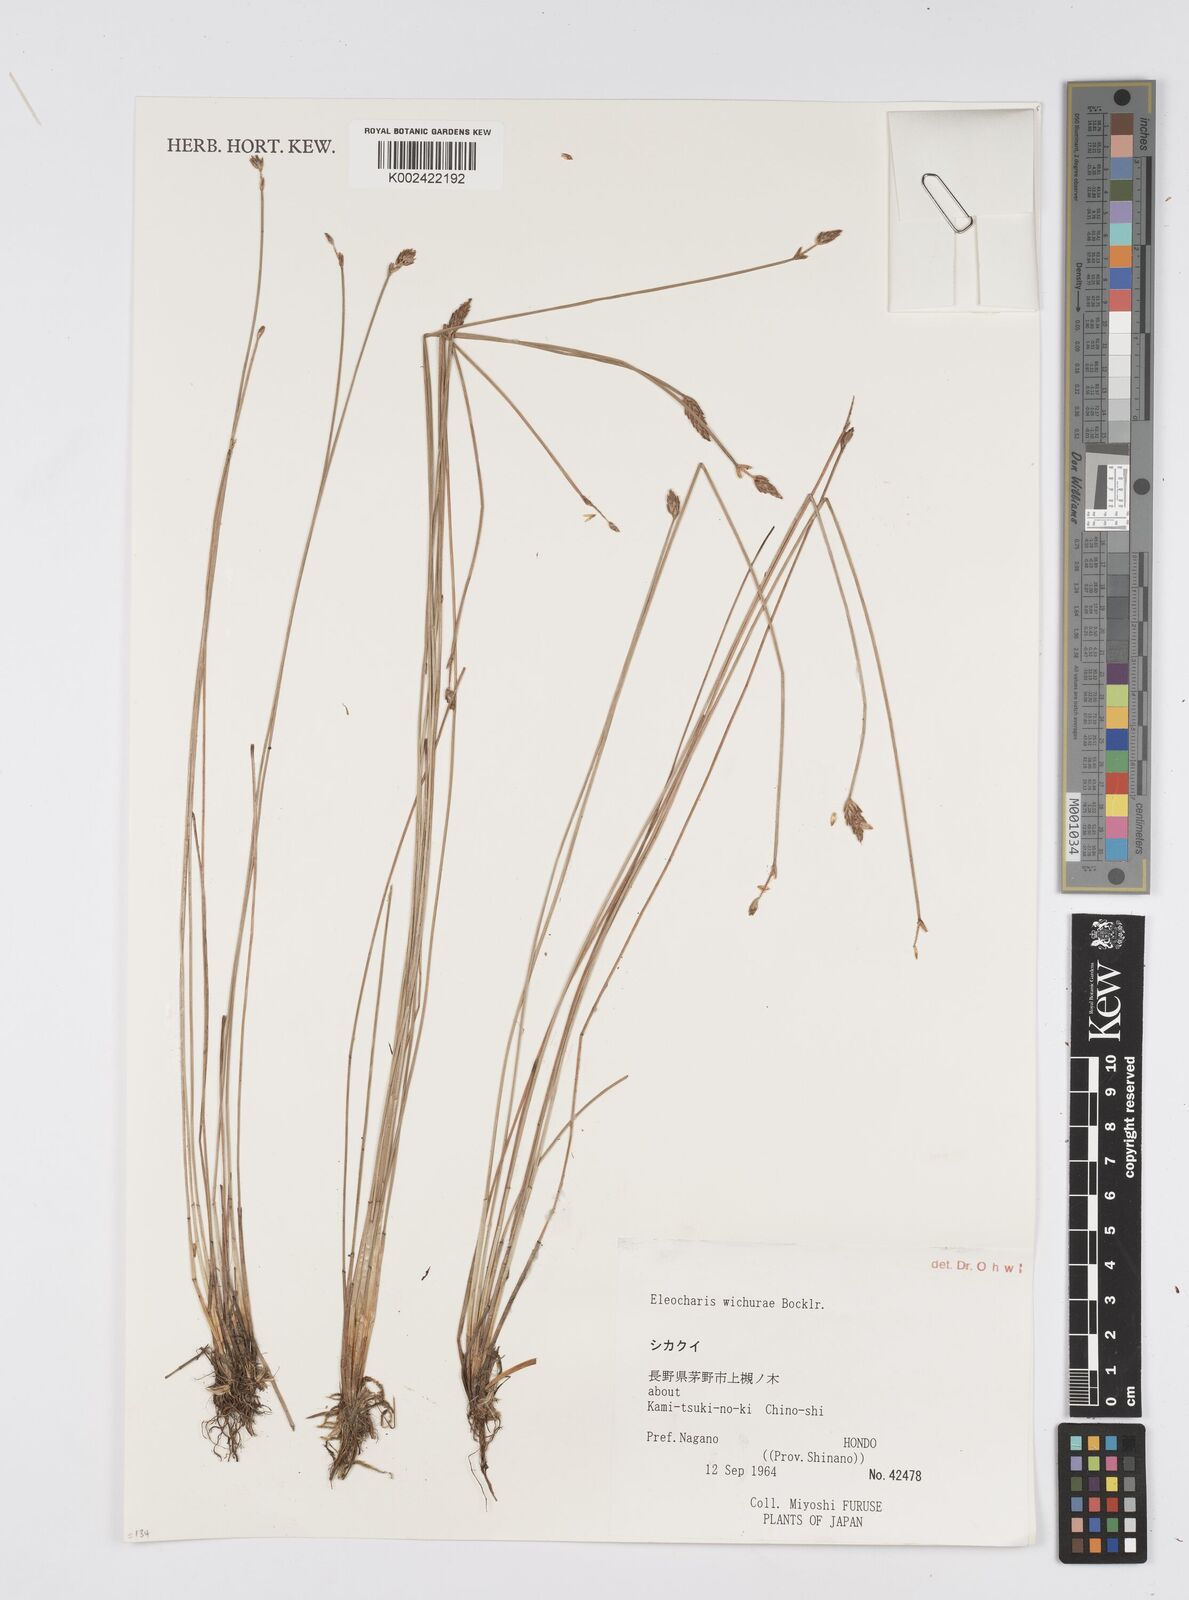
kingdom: Plantae
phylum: Tracheophyta
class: Liliopsida
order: Poales
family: Cyperaceae
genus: Eleocharis
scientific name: Eleocharis tetraquetra
